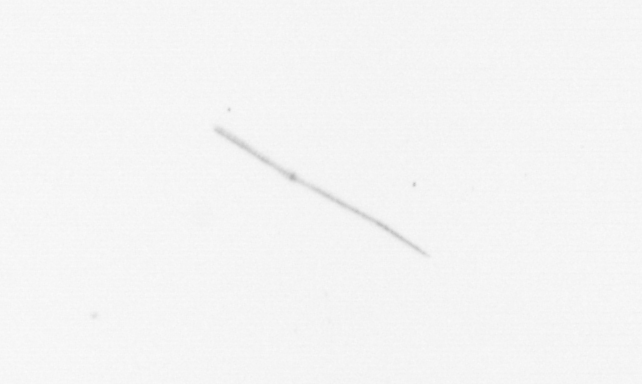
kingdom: Chromista
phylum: Ochrophyta
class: Bacillariophyceae
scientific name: Bacillariophyceae
